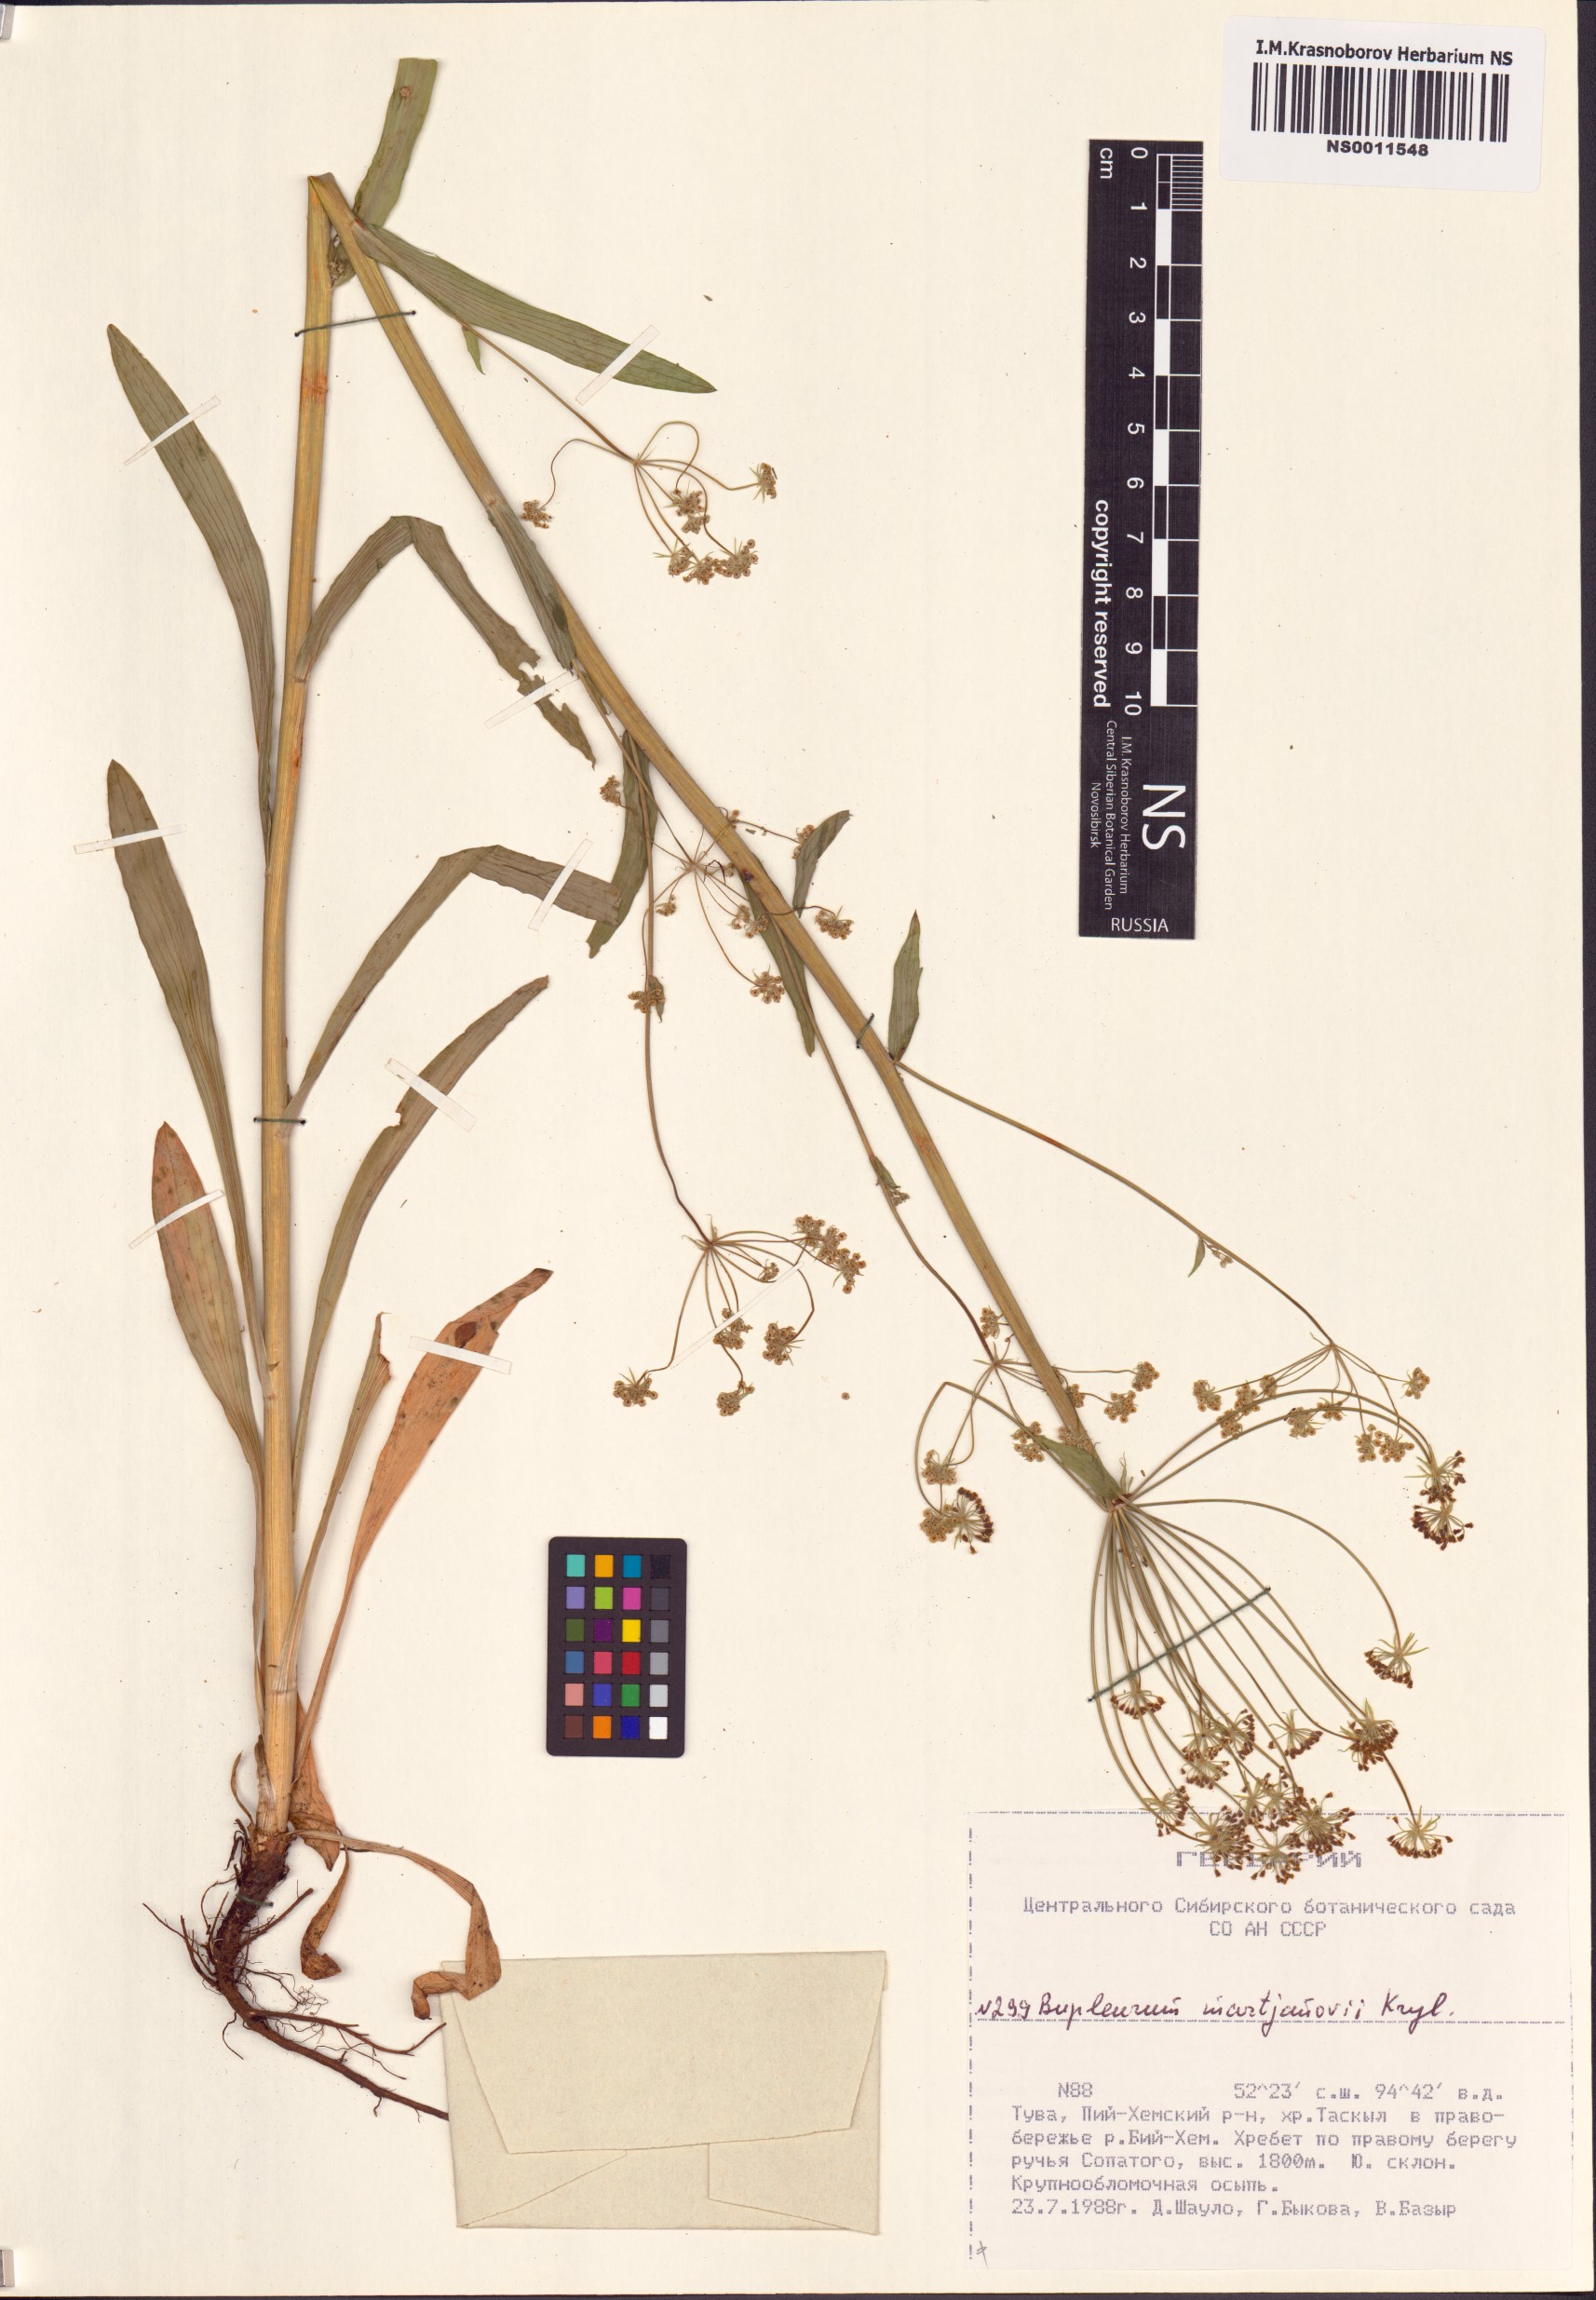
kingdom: Plantae
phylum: Tracheophyta
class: Magnoliopsida
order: Apiales
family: Apiaceae
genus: Bupleurum
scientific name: Bupleurum martjanovii
